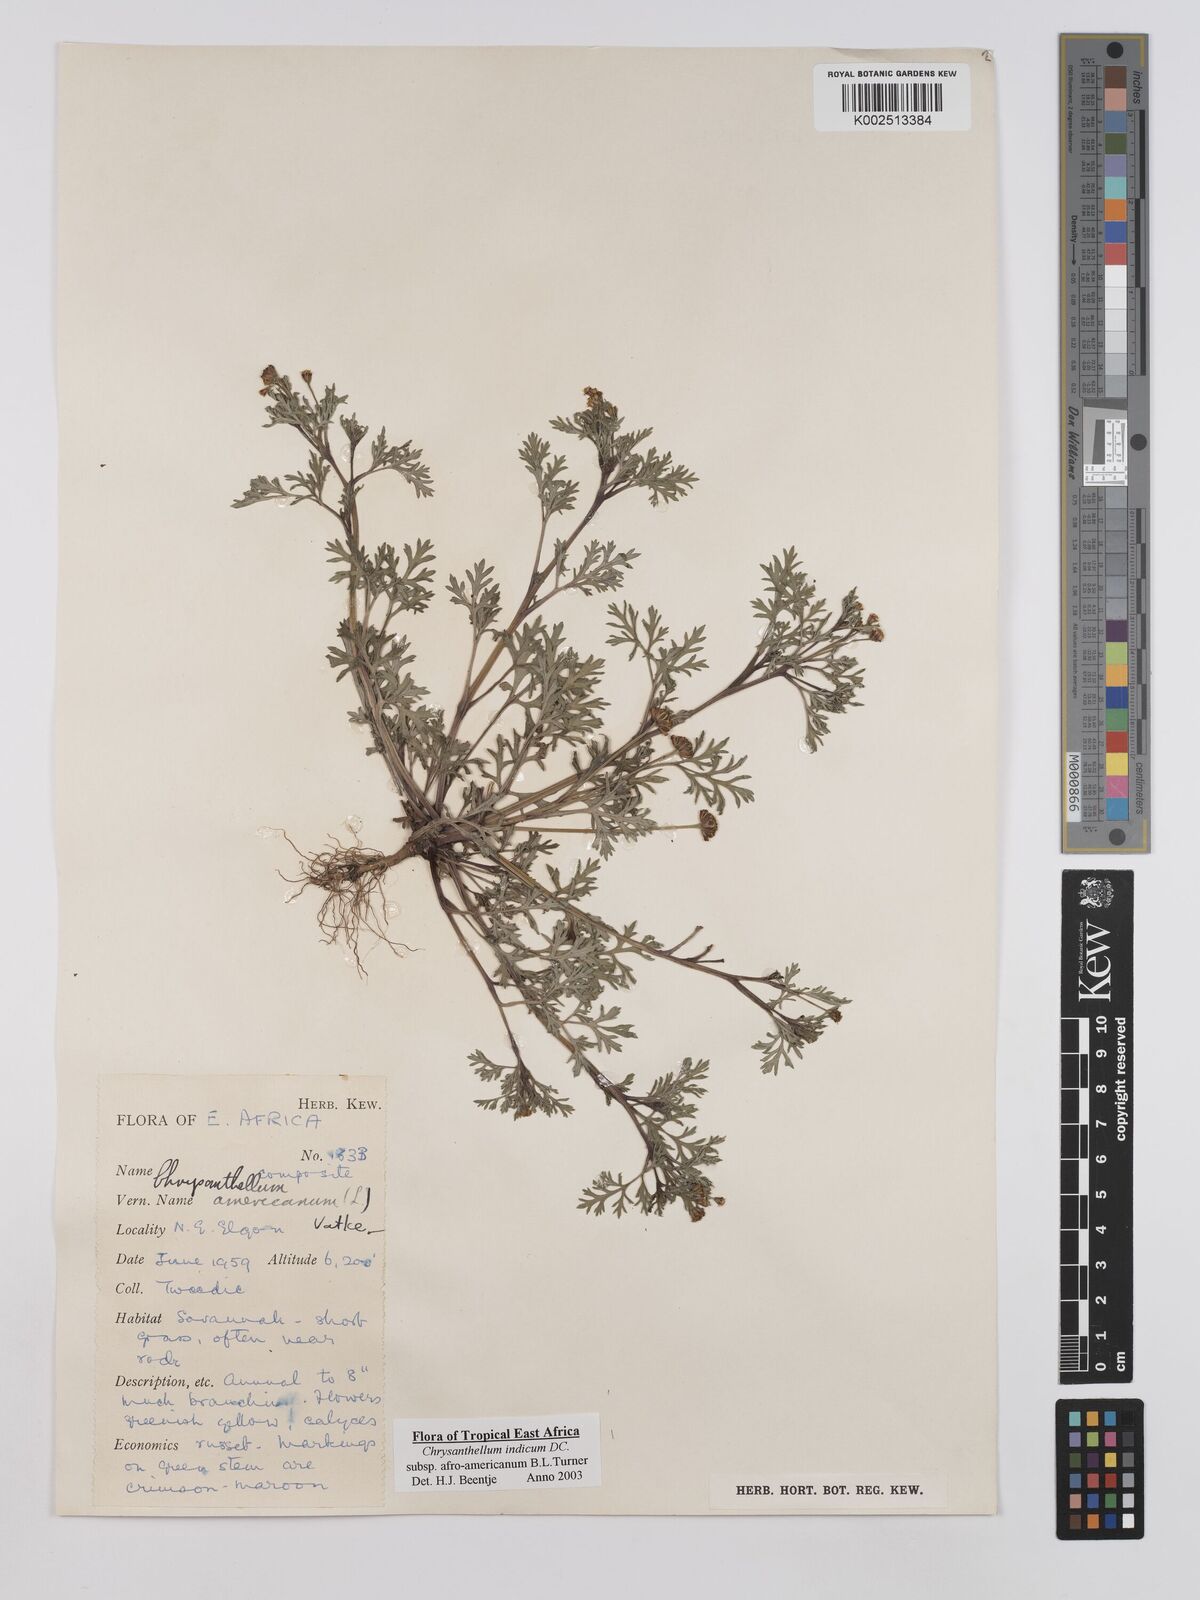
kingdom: Plantae
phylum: Tracheophyta
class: Magnoliopsida
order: Asterales
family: Asteraceae
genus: Chrysanthellum
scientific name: Chrysanthellum indicum
